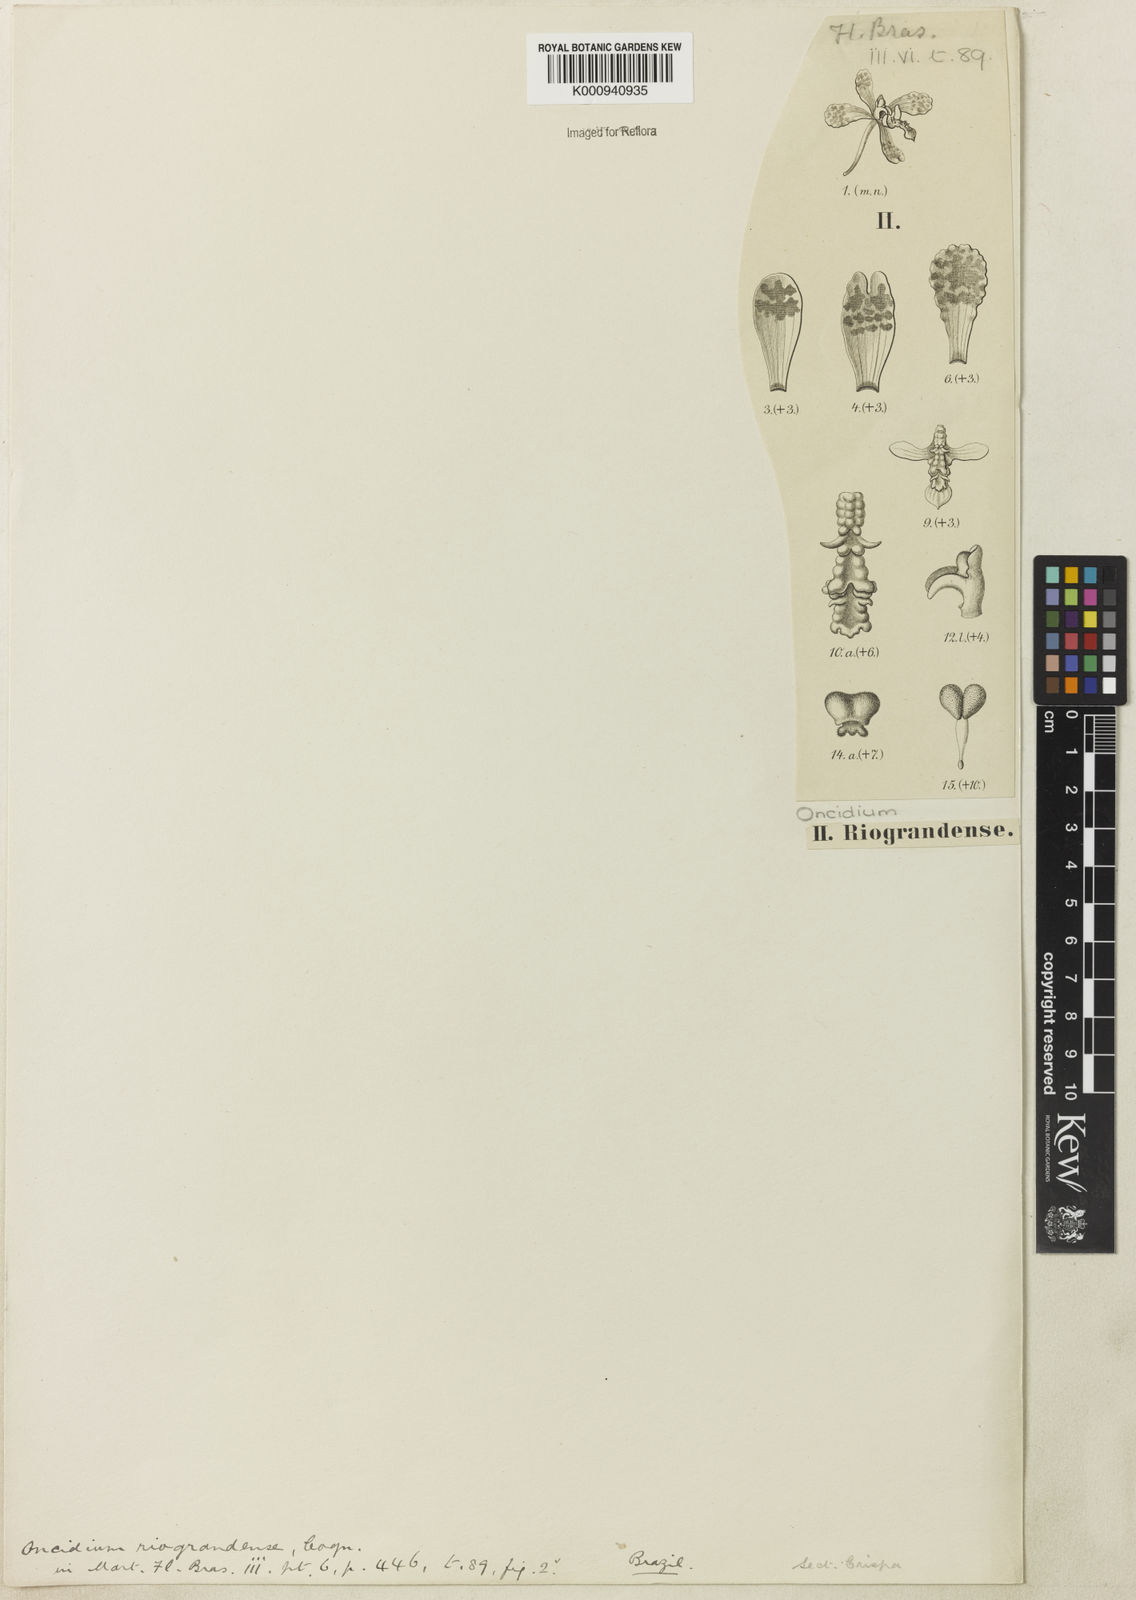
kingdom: Plantae
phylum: Tracheophyta
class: Liliopsida
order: Asparagales
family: Orchidaceae
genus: Gomesa
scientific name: Gomesa riograndensis
